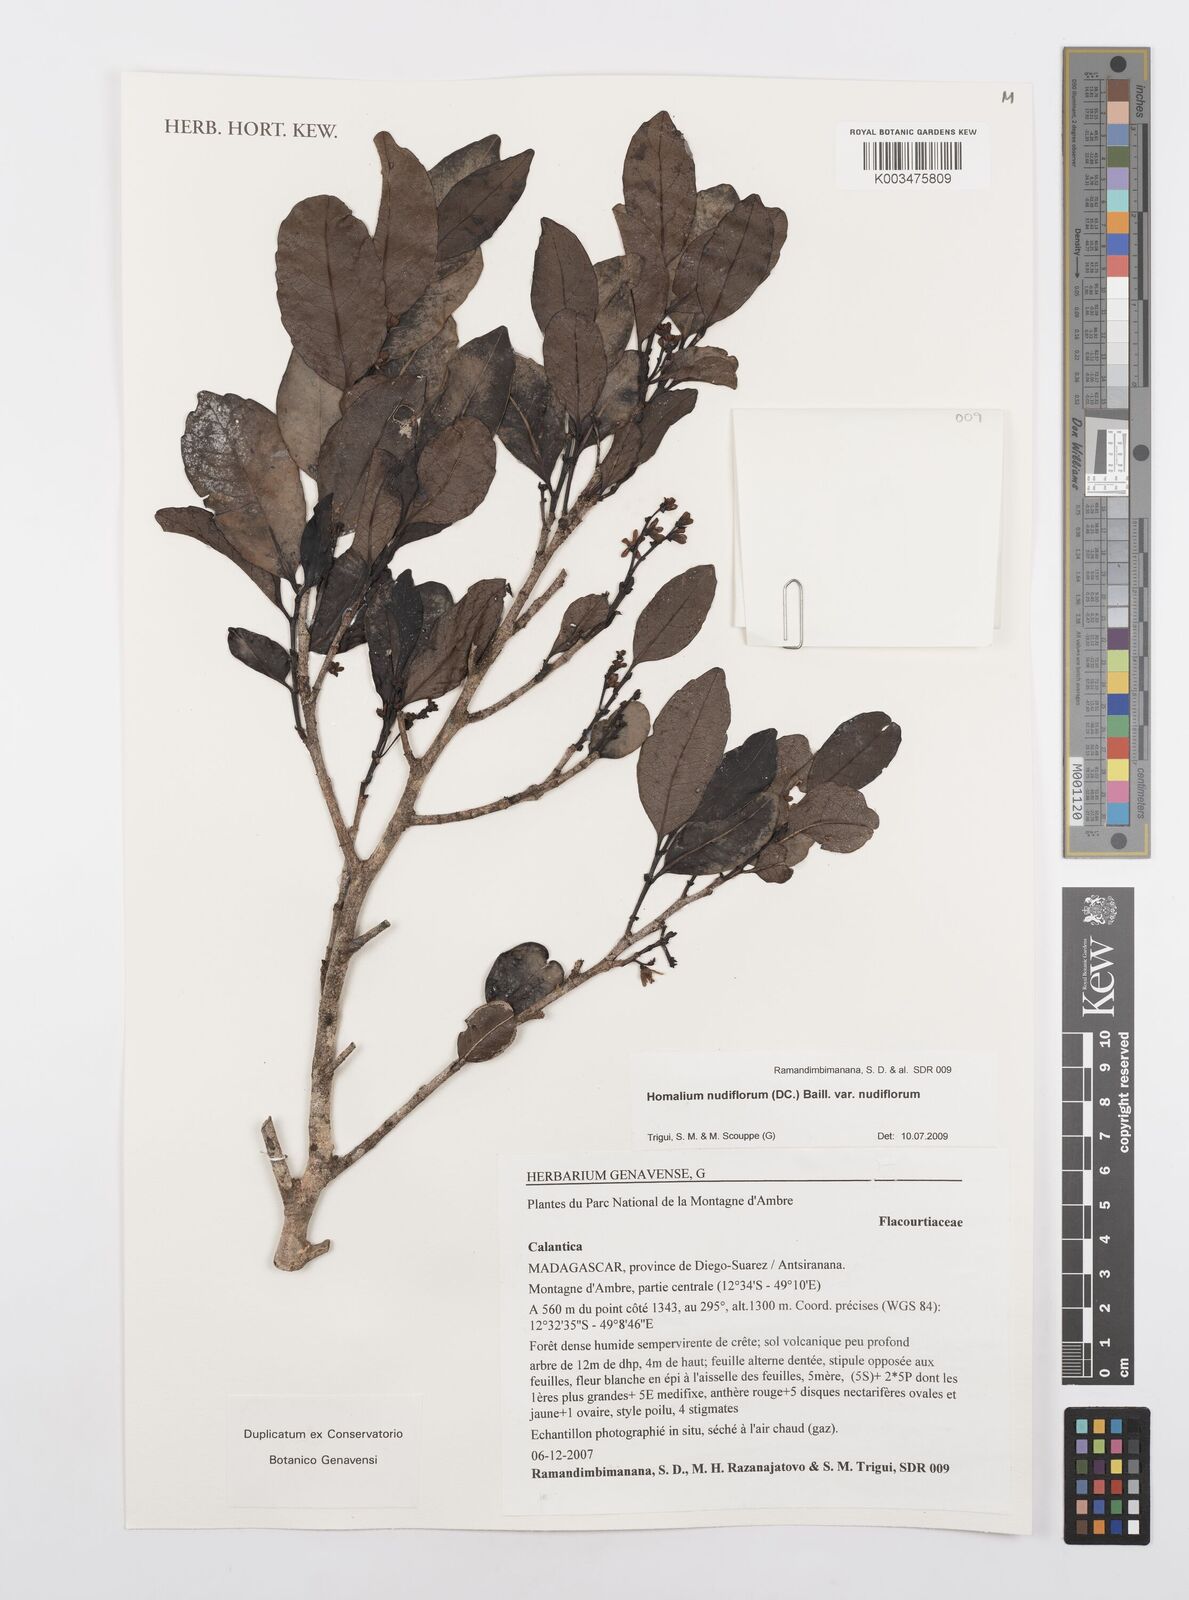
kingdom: Plantae
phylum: Tracheophyta
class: Magnoliopsida
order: Malpighiales
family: Salicaceae
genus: Homalium
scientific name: Homalium nudiflorum
